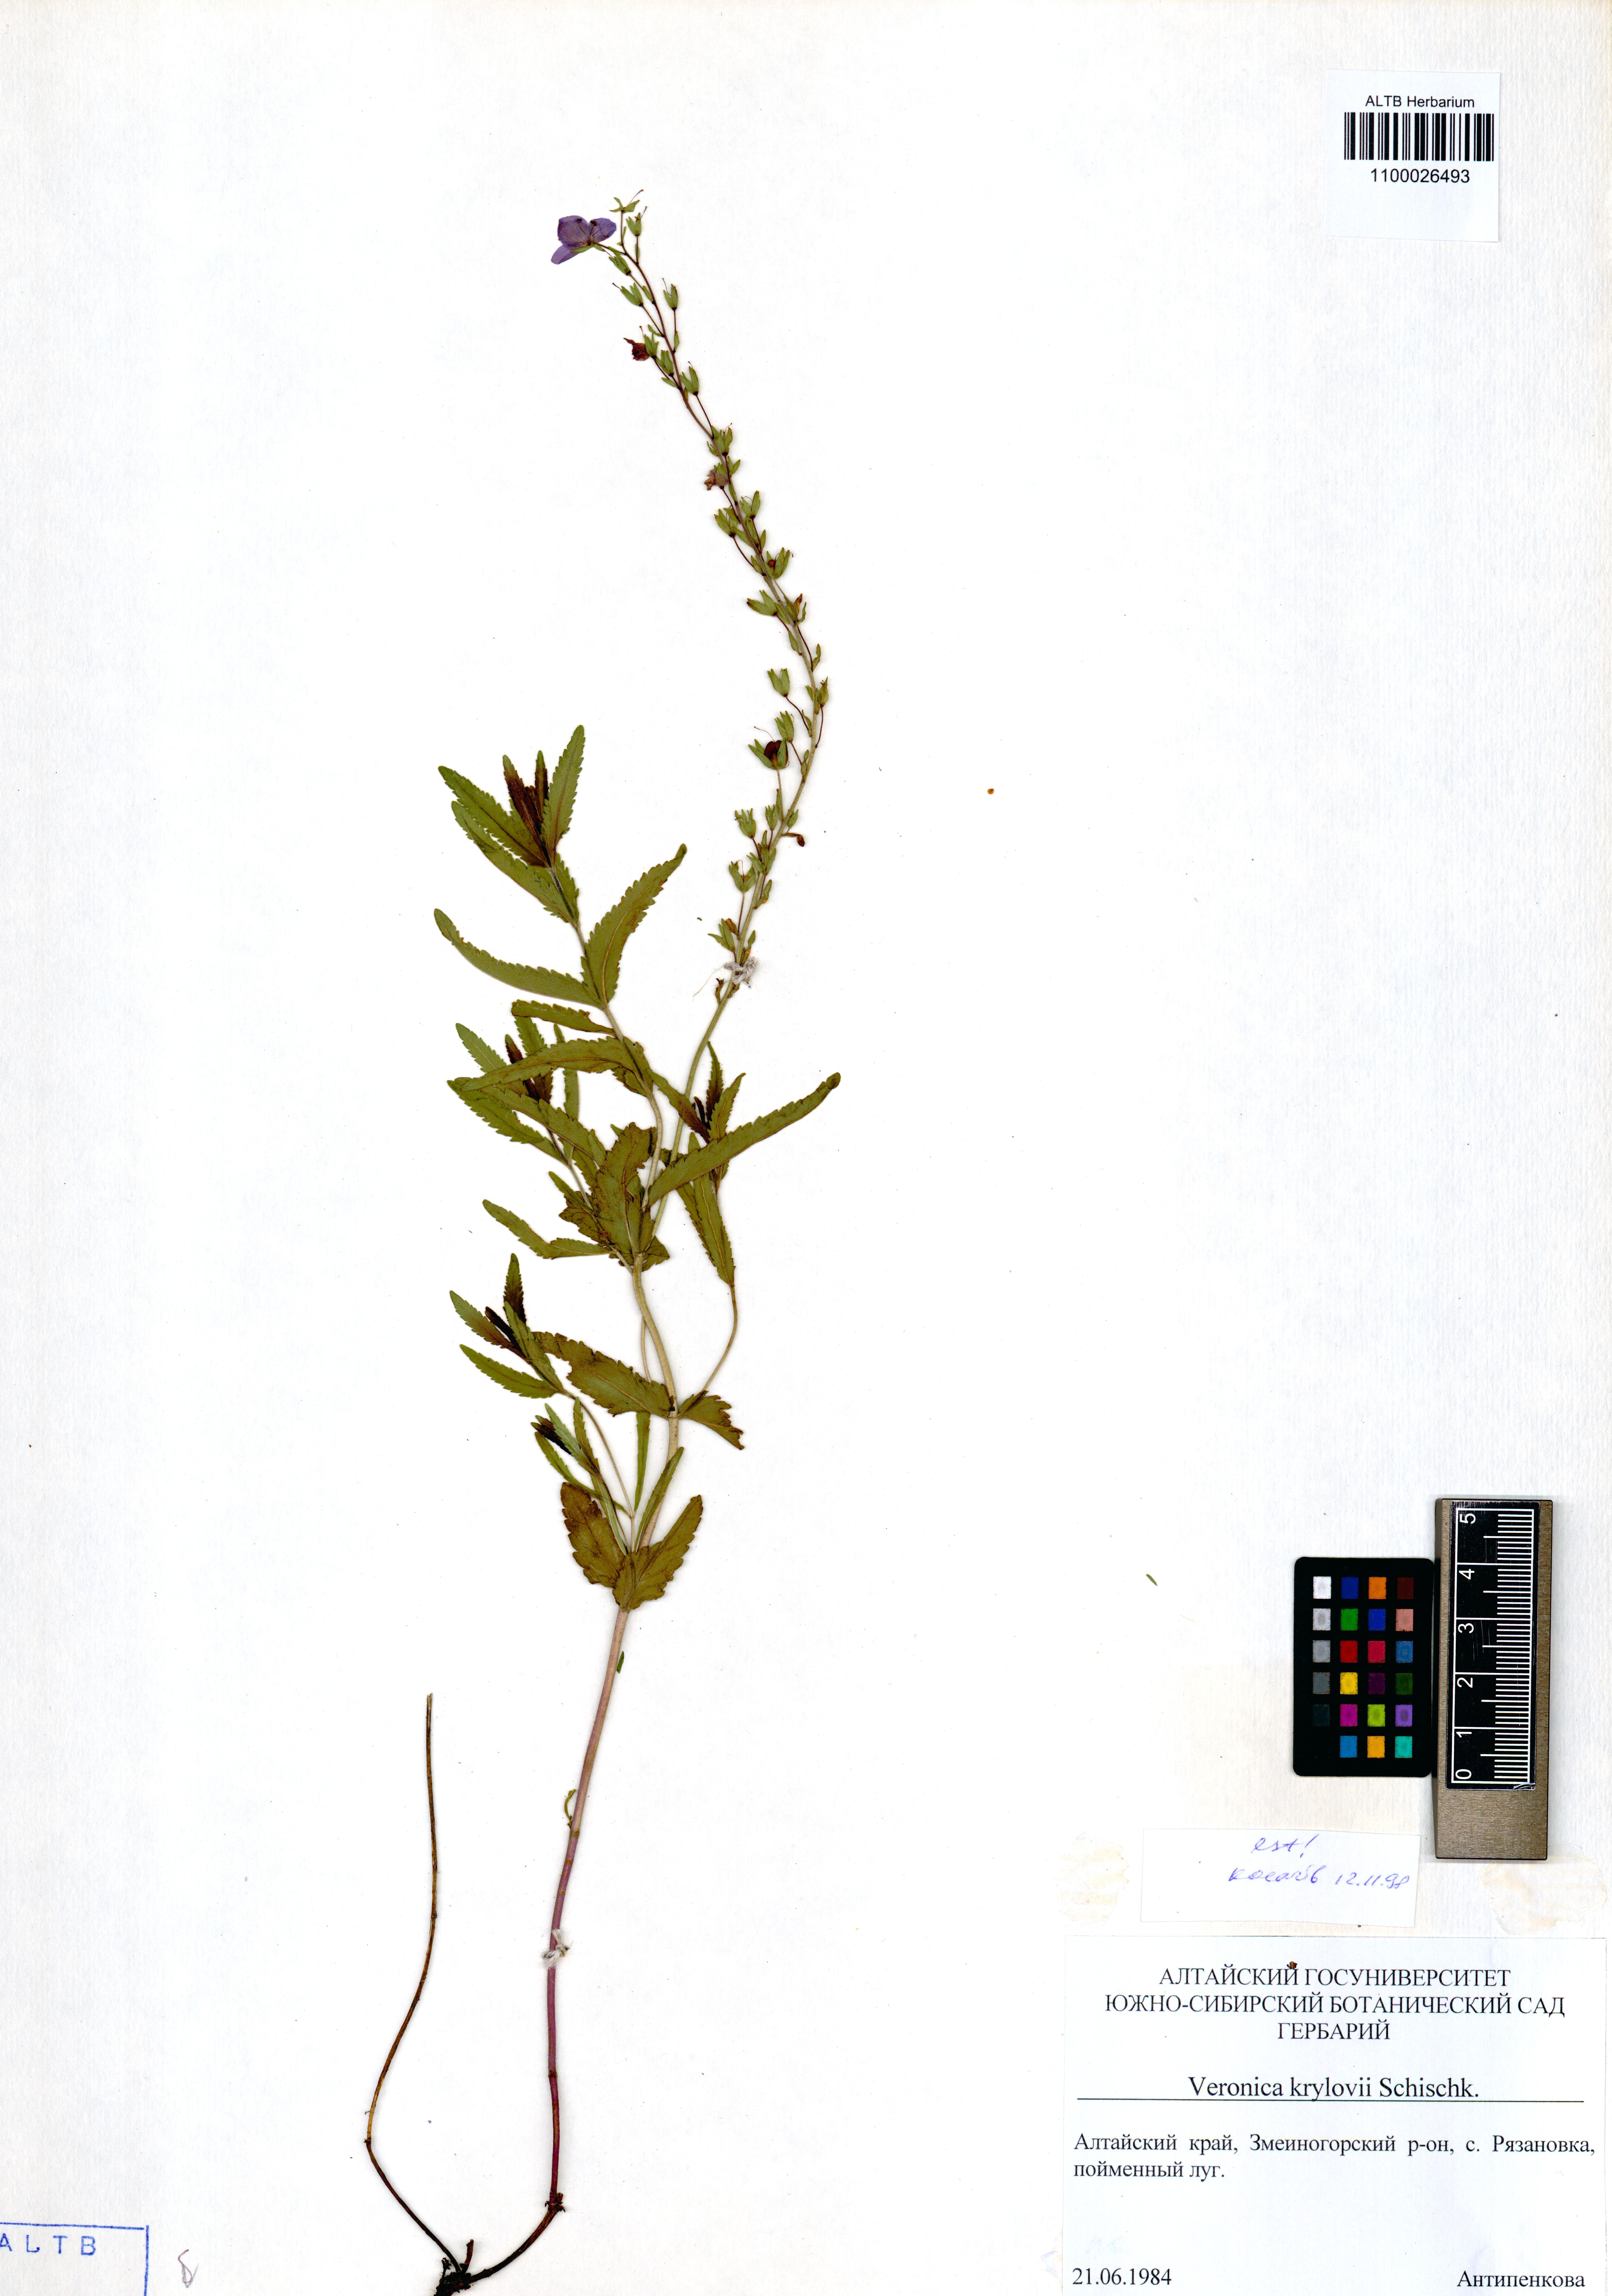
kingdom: Plantae
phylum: Tracheophyta
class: Magnoliopsida
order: Lamiales
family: Plantaginaceae
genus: Veronica
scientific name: Veronica krylovii
